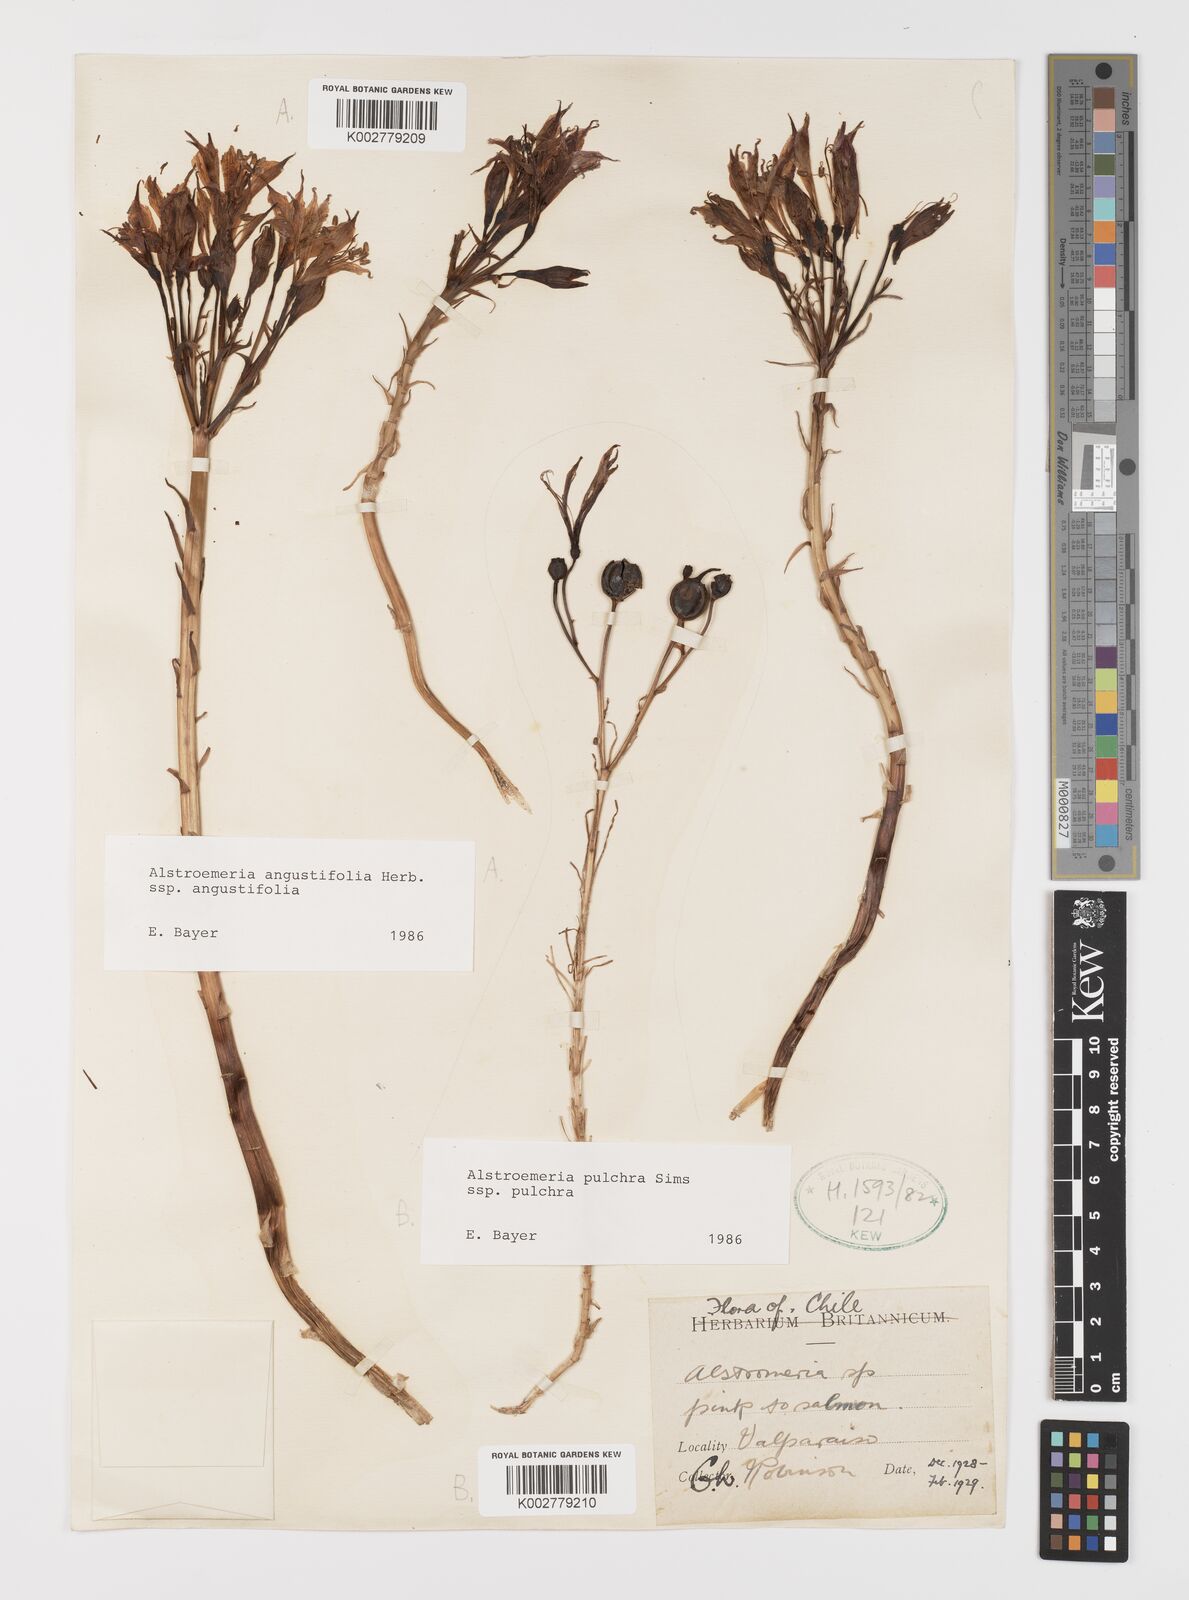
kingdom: Plantae
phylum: Tracheophyta
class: Liliopsida
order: Liliales
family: Alstroemeriaceae
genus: Alstroemeria
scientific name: Alstroemeria angustifolia
